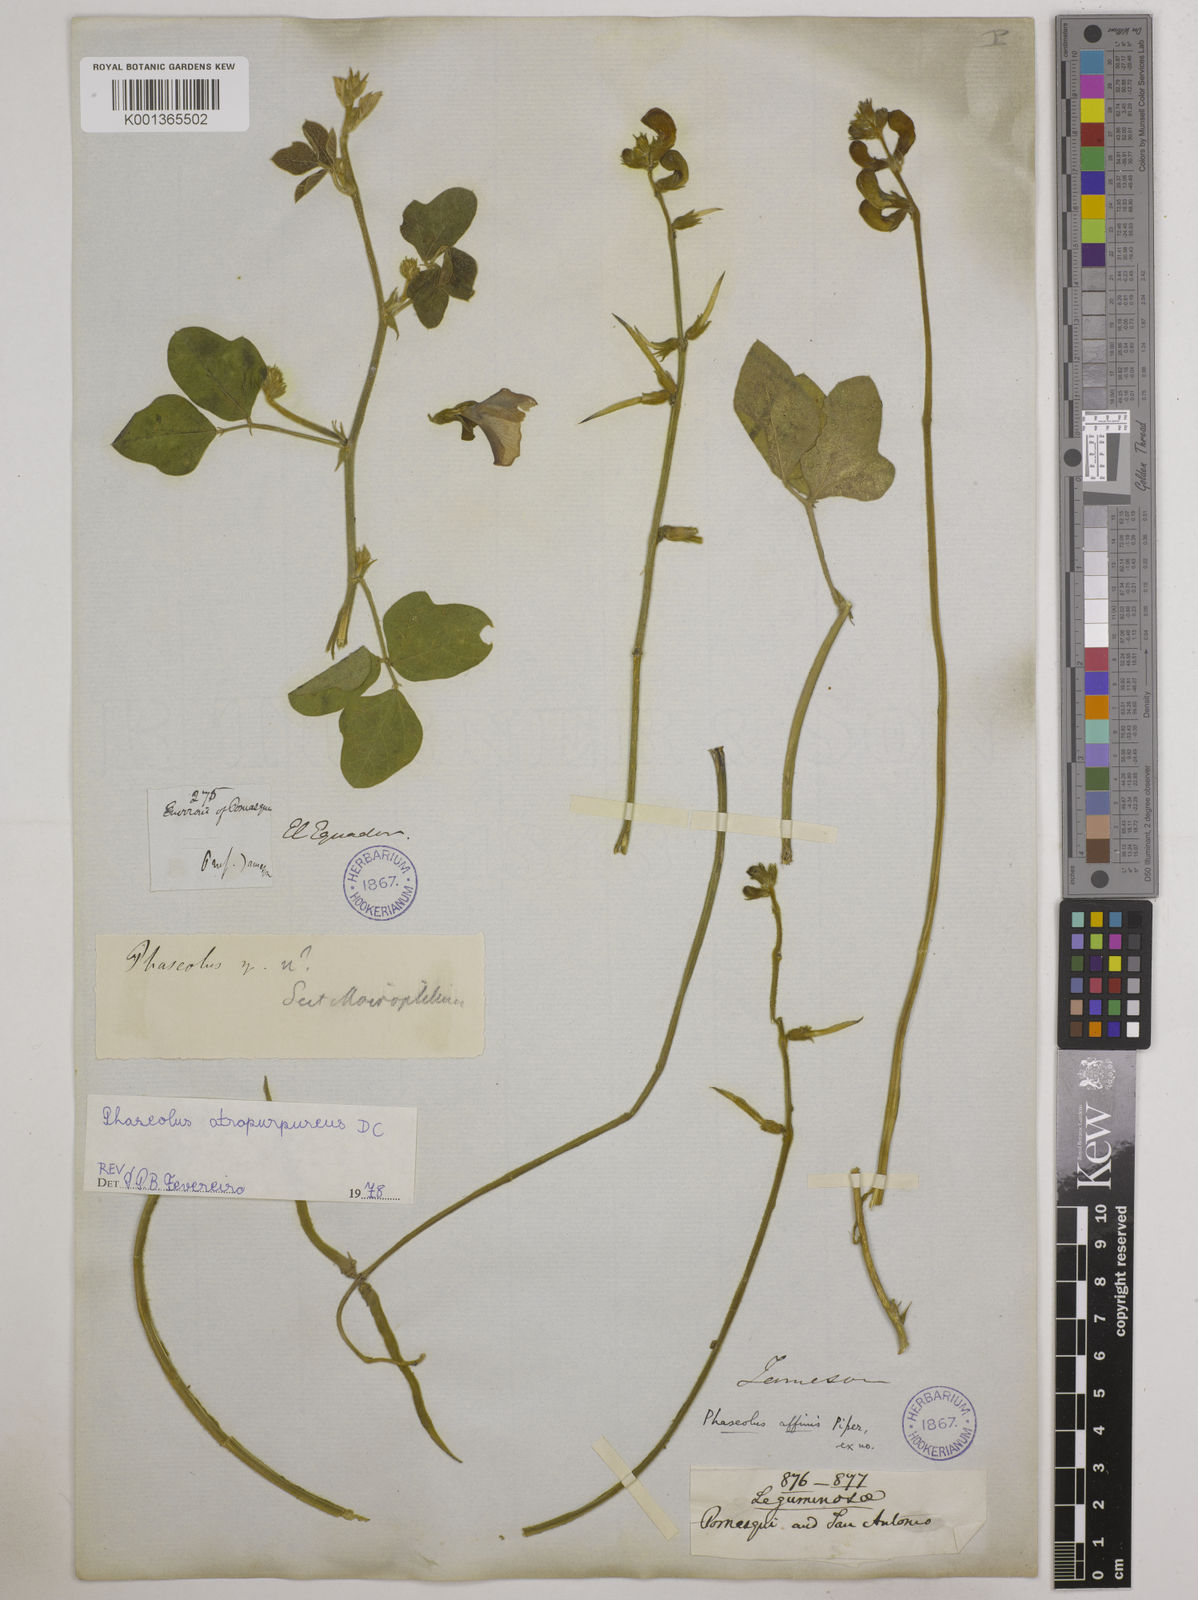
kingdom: Plantae
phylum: Tracheophyta
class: Magnoliopsida
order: Fabales
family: Fabaceae
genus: Macroptilium
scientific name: Macroptilium atropurpureum
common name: Purple bushbean
